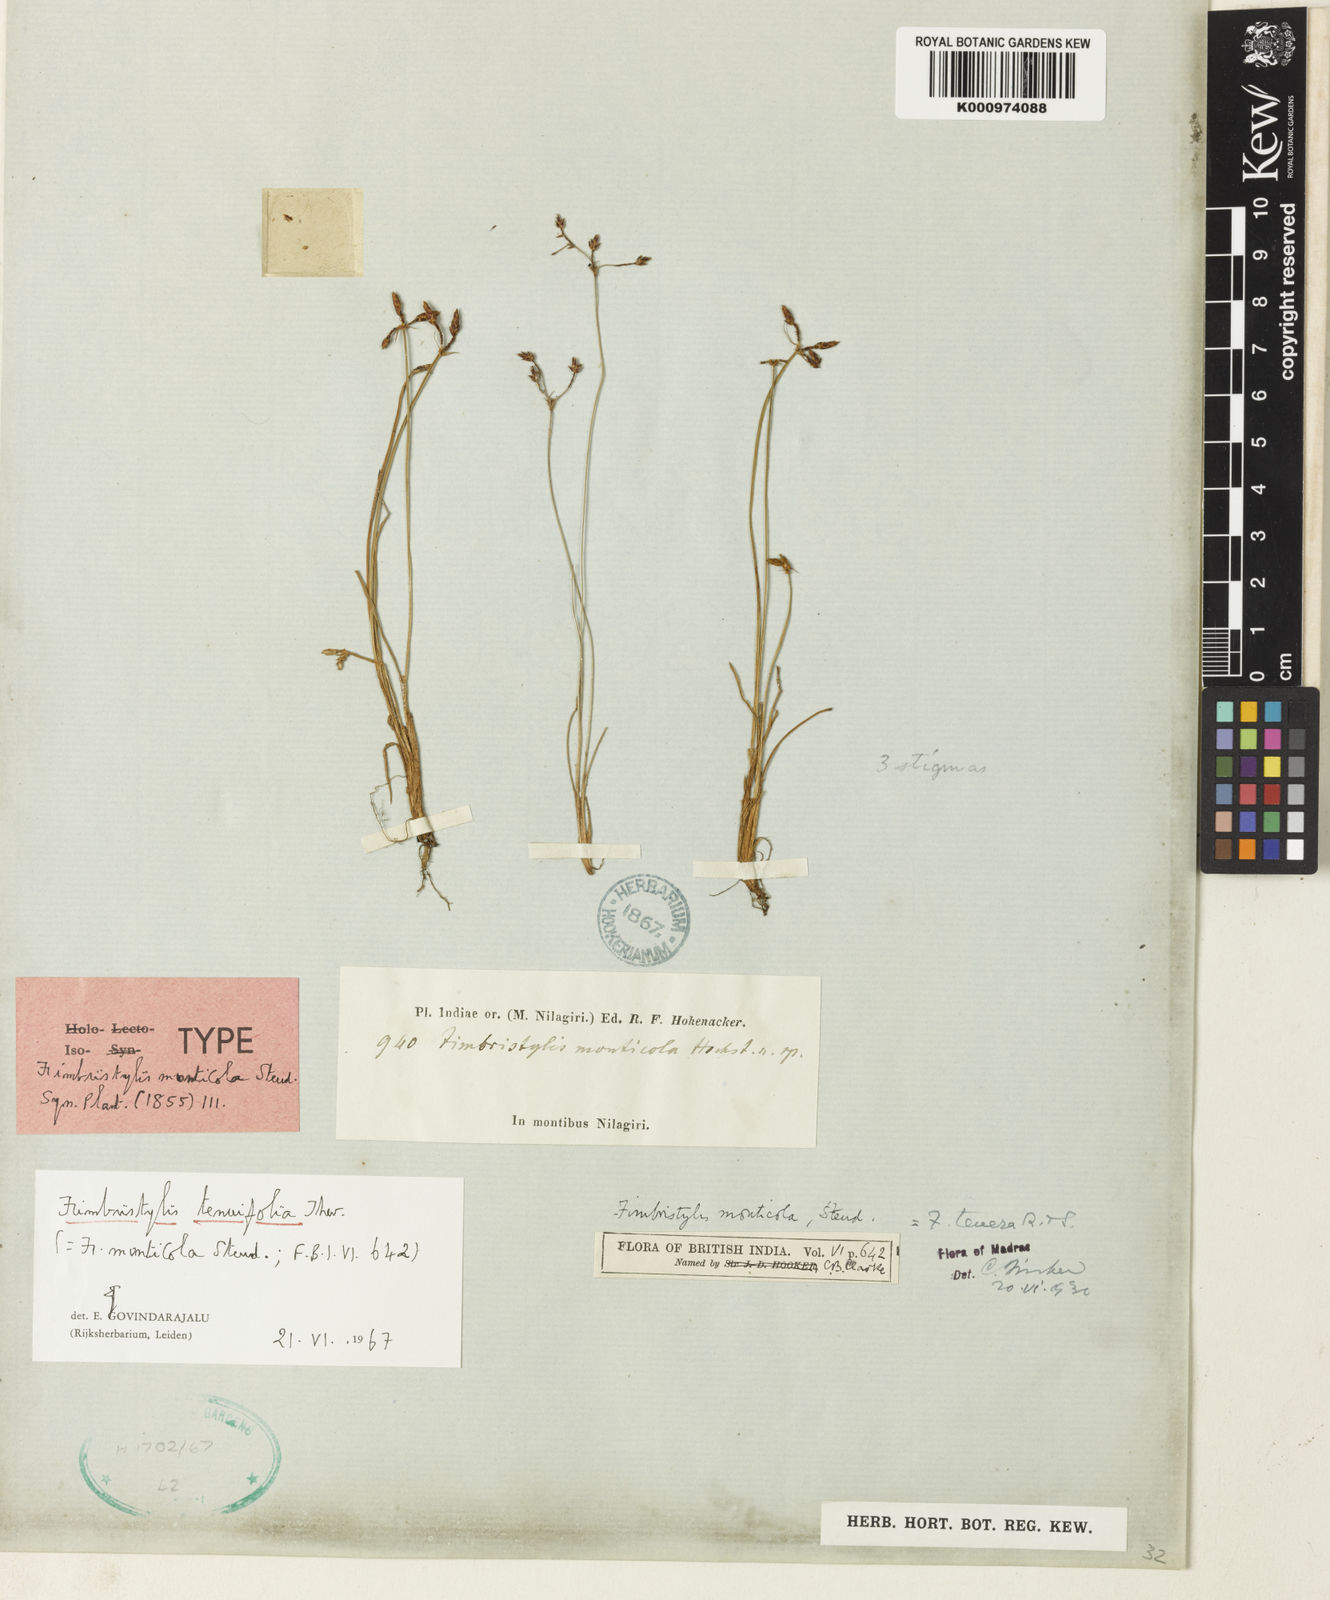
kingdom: Plantae
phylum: Tracheophyta
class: Liliopsida
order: Poales
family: Cyperaceae
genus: Fimbristylis
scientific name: Fimbristylis monticola
